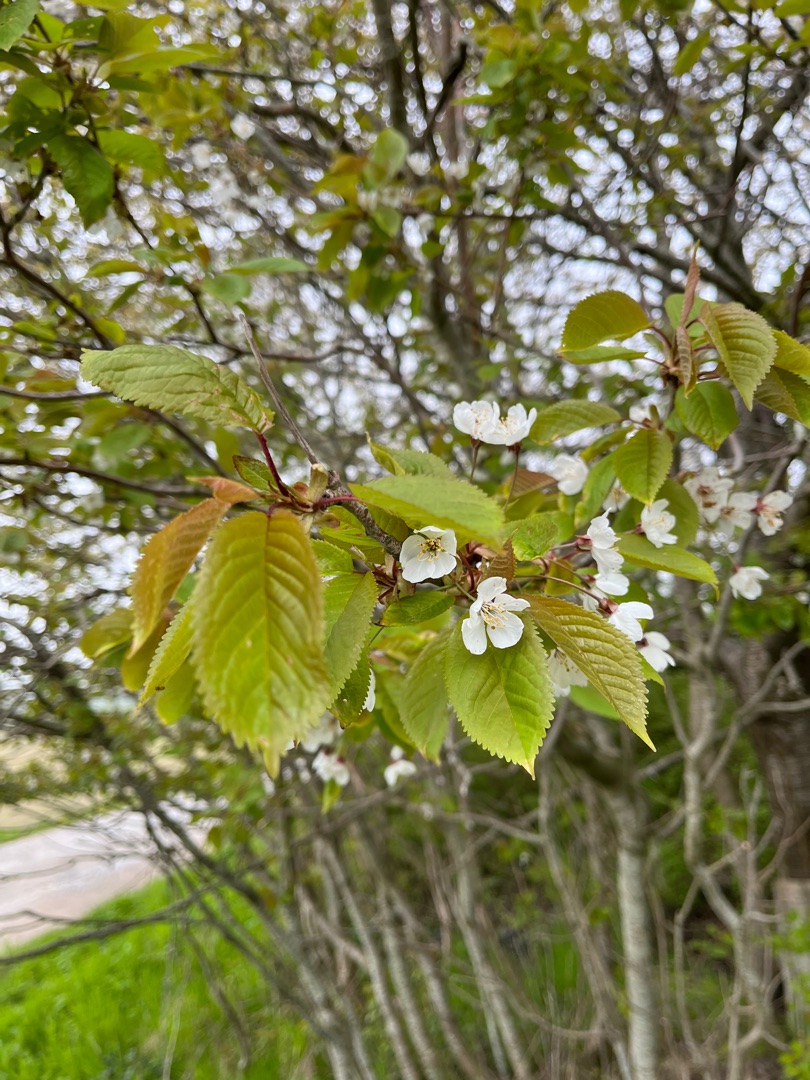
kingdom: Plantae
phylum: Tracheophyta
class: Magnoliopsida
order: Rosales
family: Rosaceae
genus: Prunus
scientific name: Prunus avium
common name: Fugle-kirsebær
